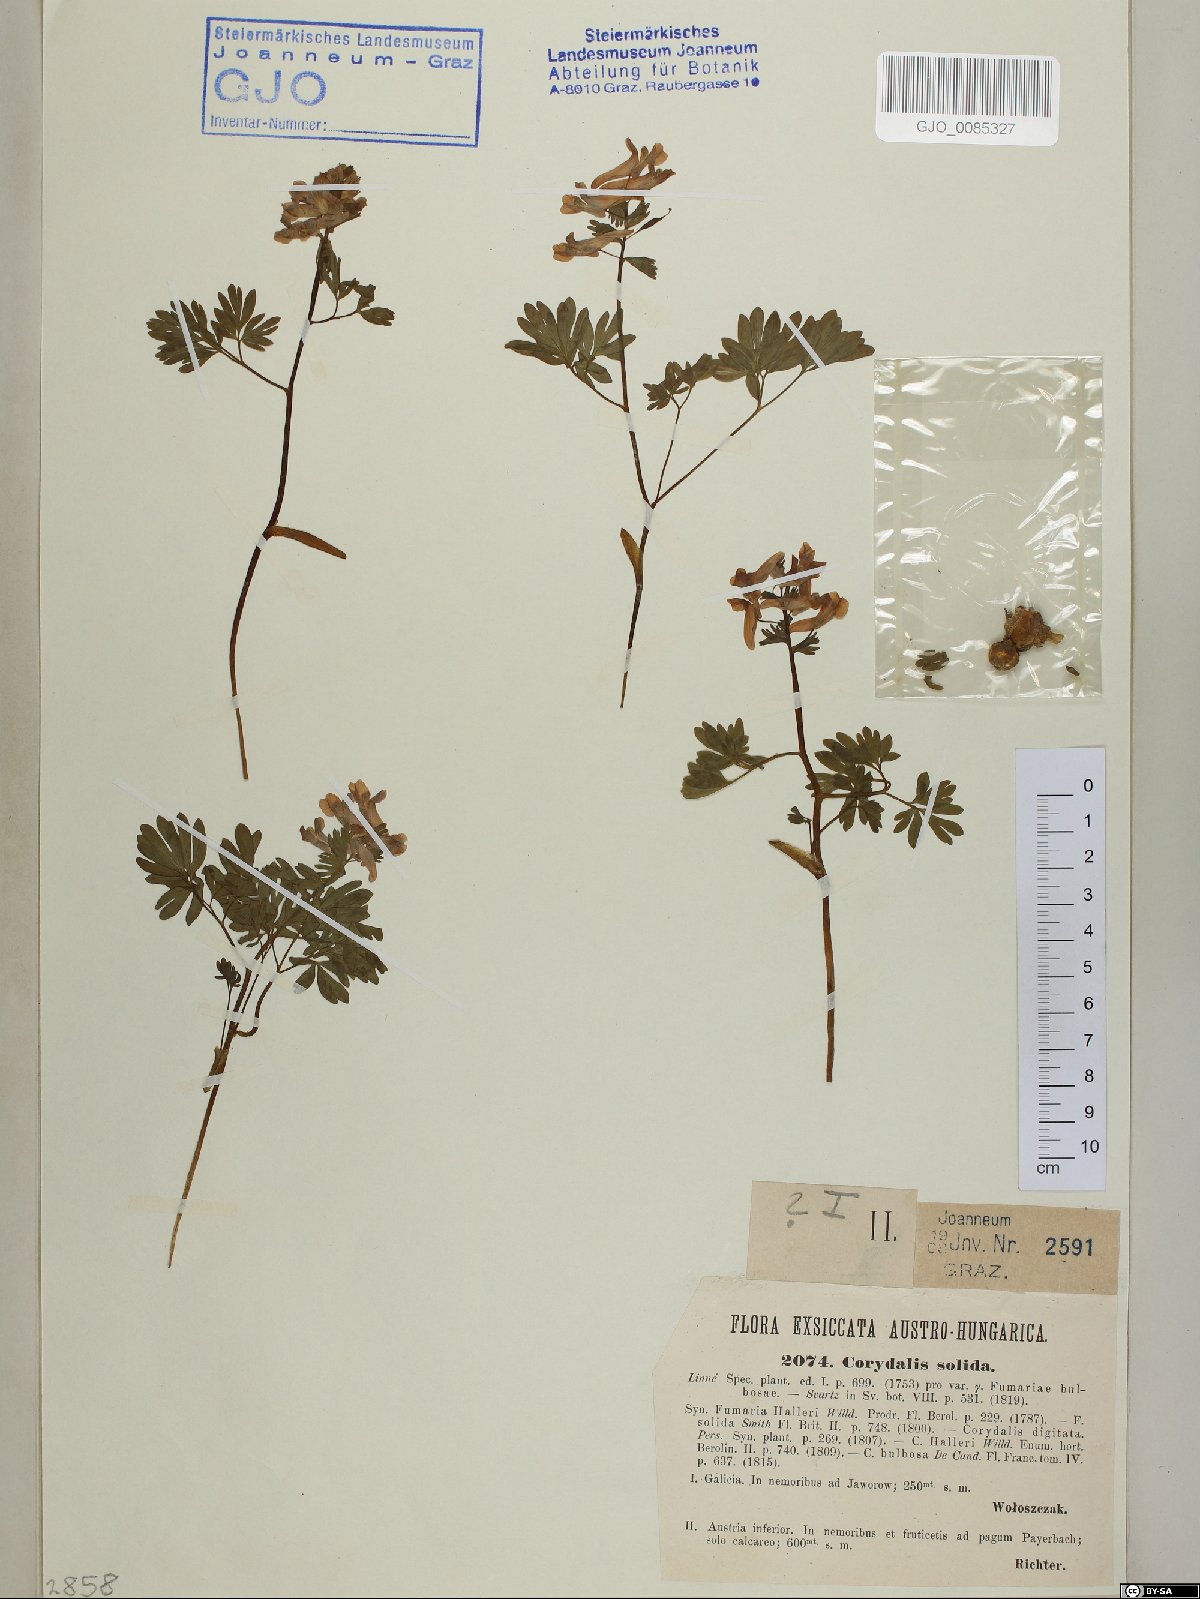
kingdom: Plantae
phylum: Tracheophyta
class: Magnoliopsida
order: Ranunculales
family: Papaveraceae
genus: Corydalis
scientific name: Corydalis solida
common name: Bird-in-a-bush
